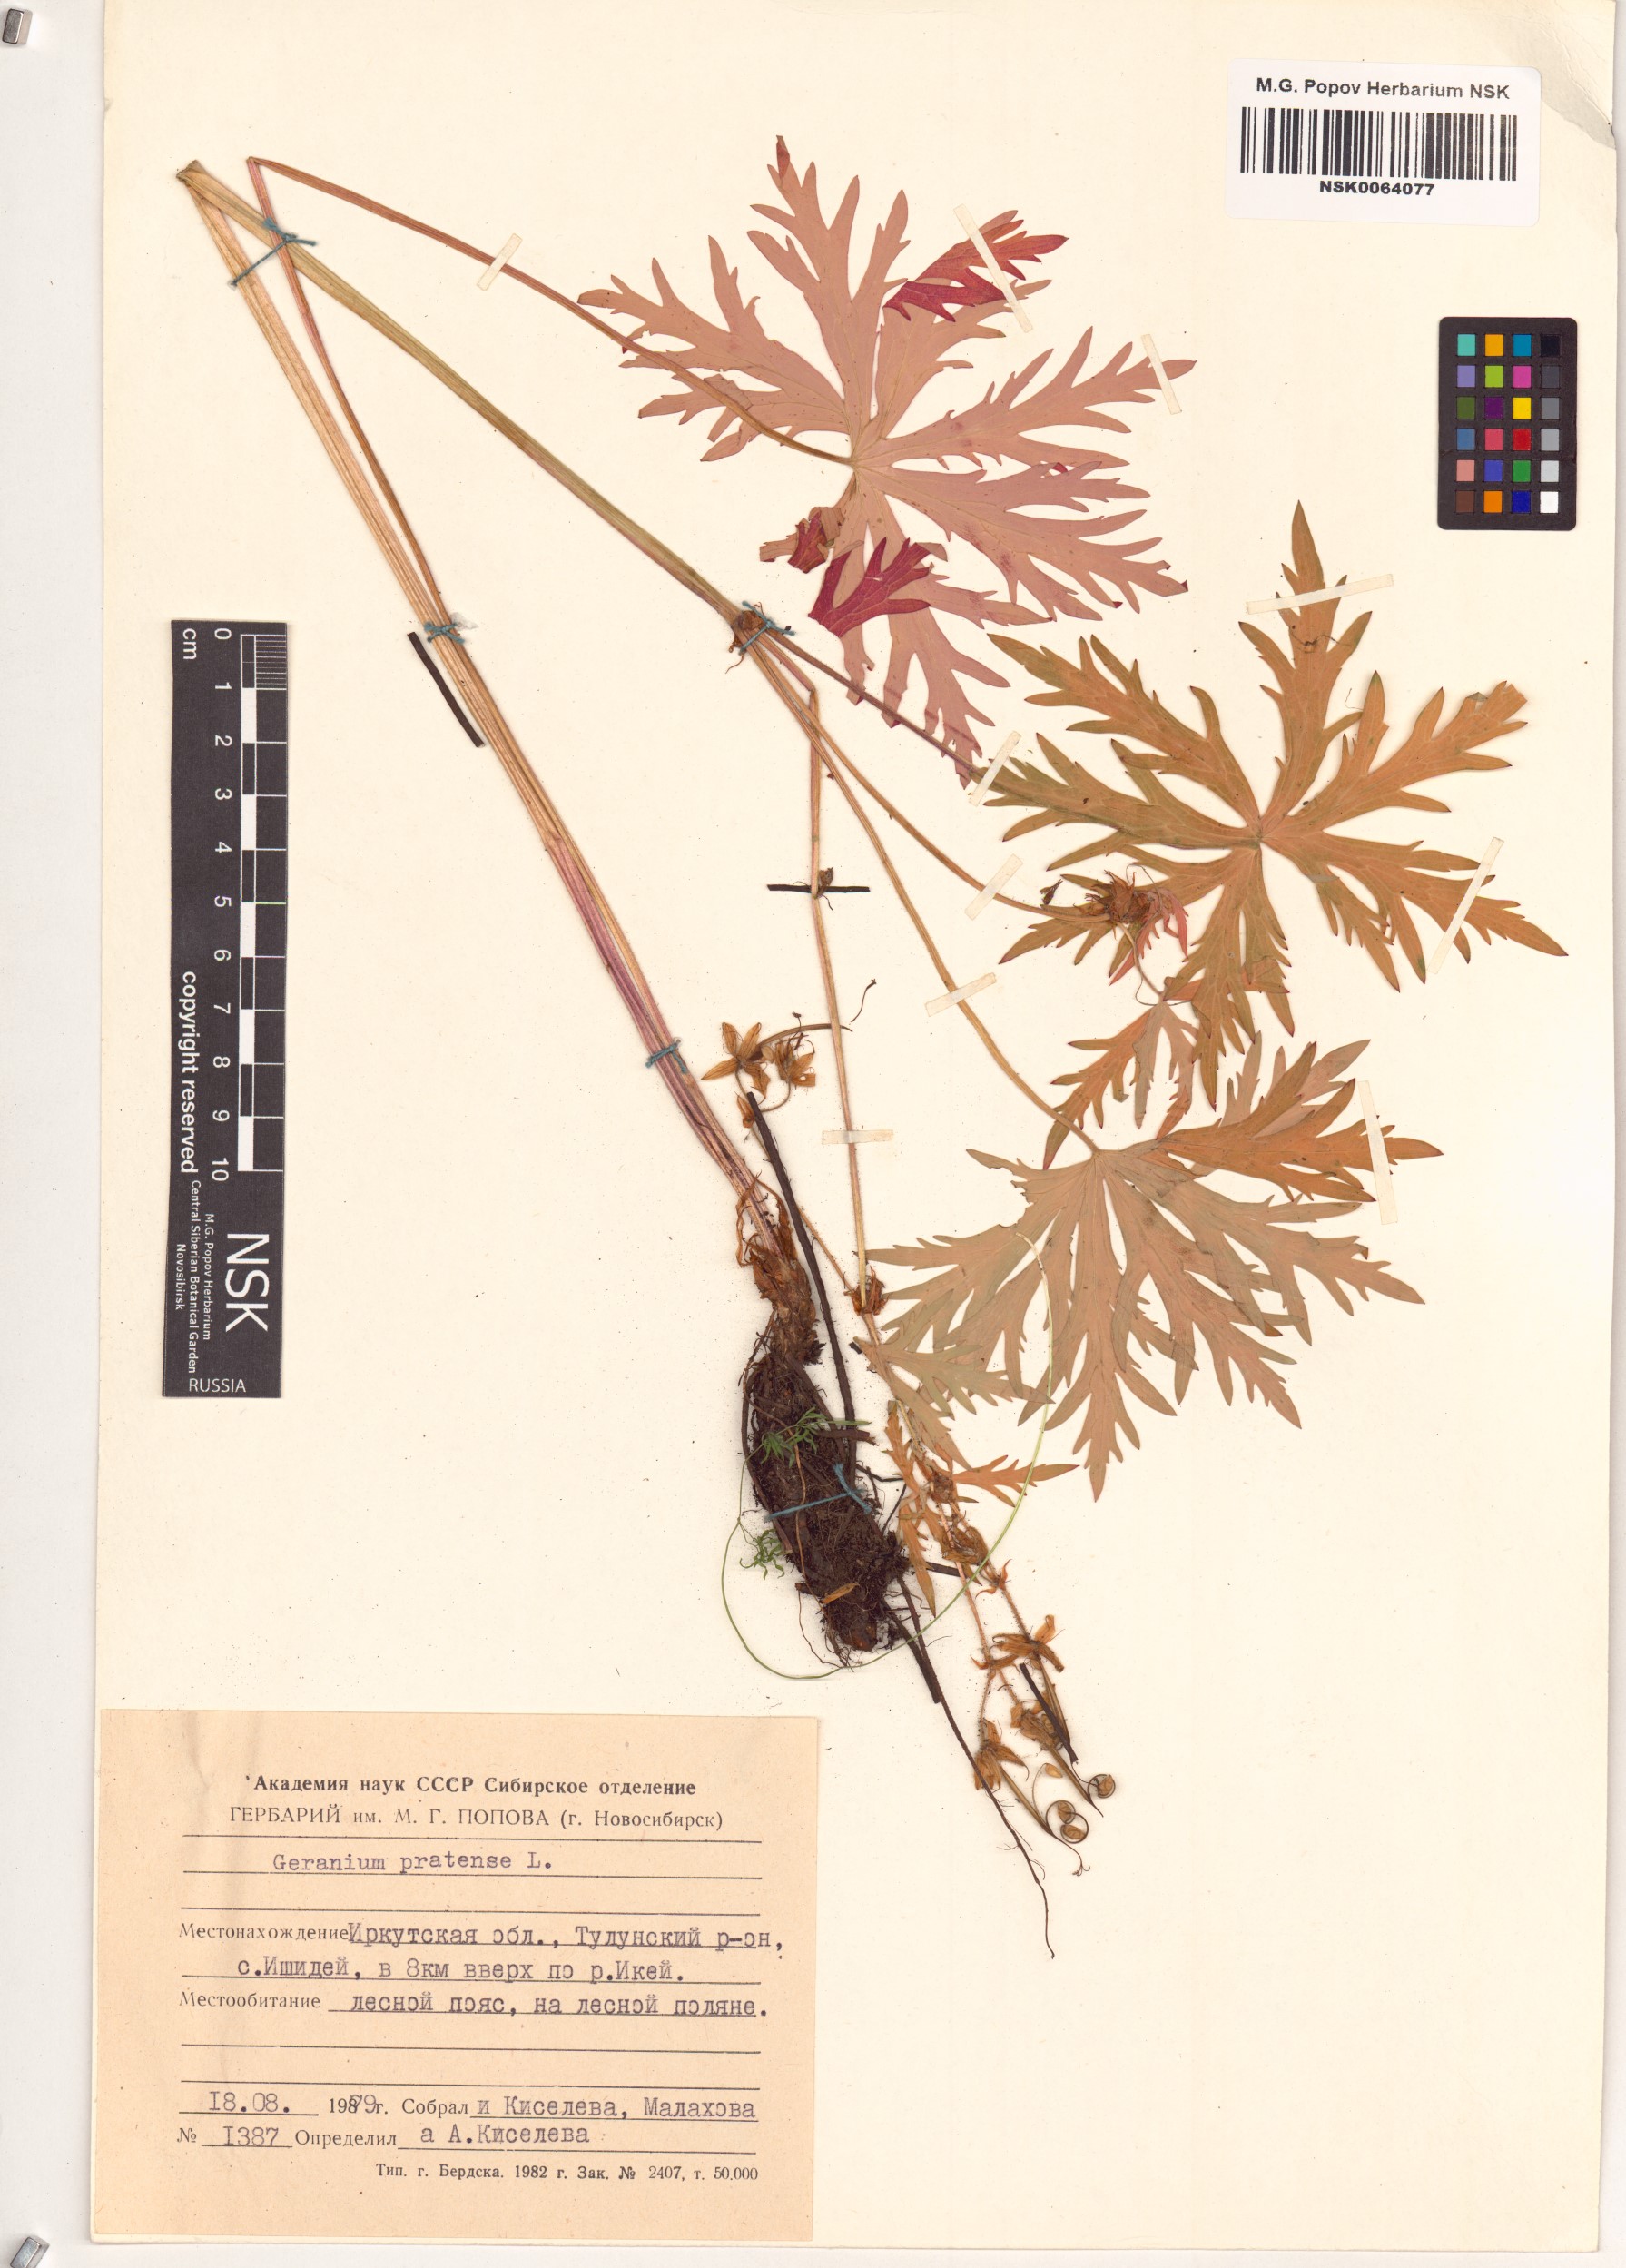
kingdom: Plantae
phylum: Tracheophyta
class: Magnoliopsida
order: Geraniales
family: Geraniaceae
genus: Geranium
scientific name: Geranium pratense
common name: Meadow crane's-bill
